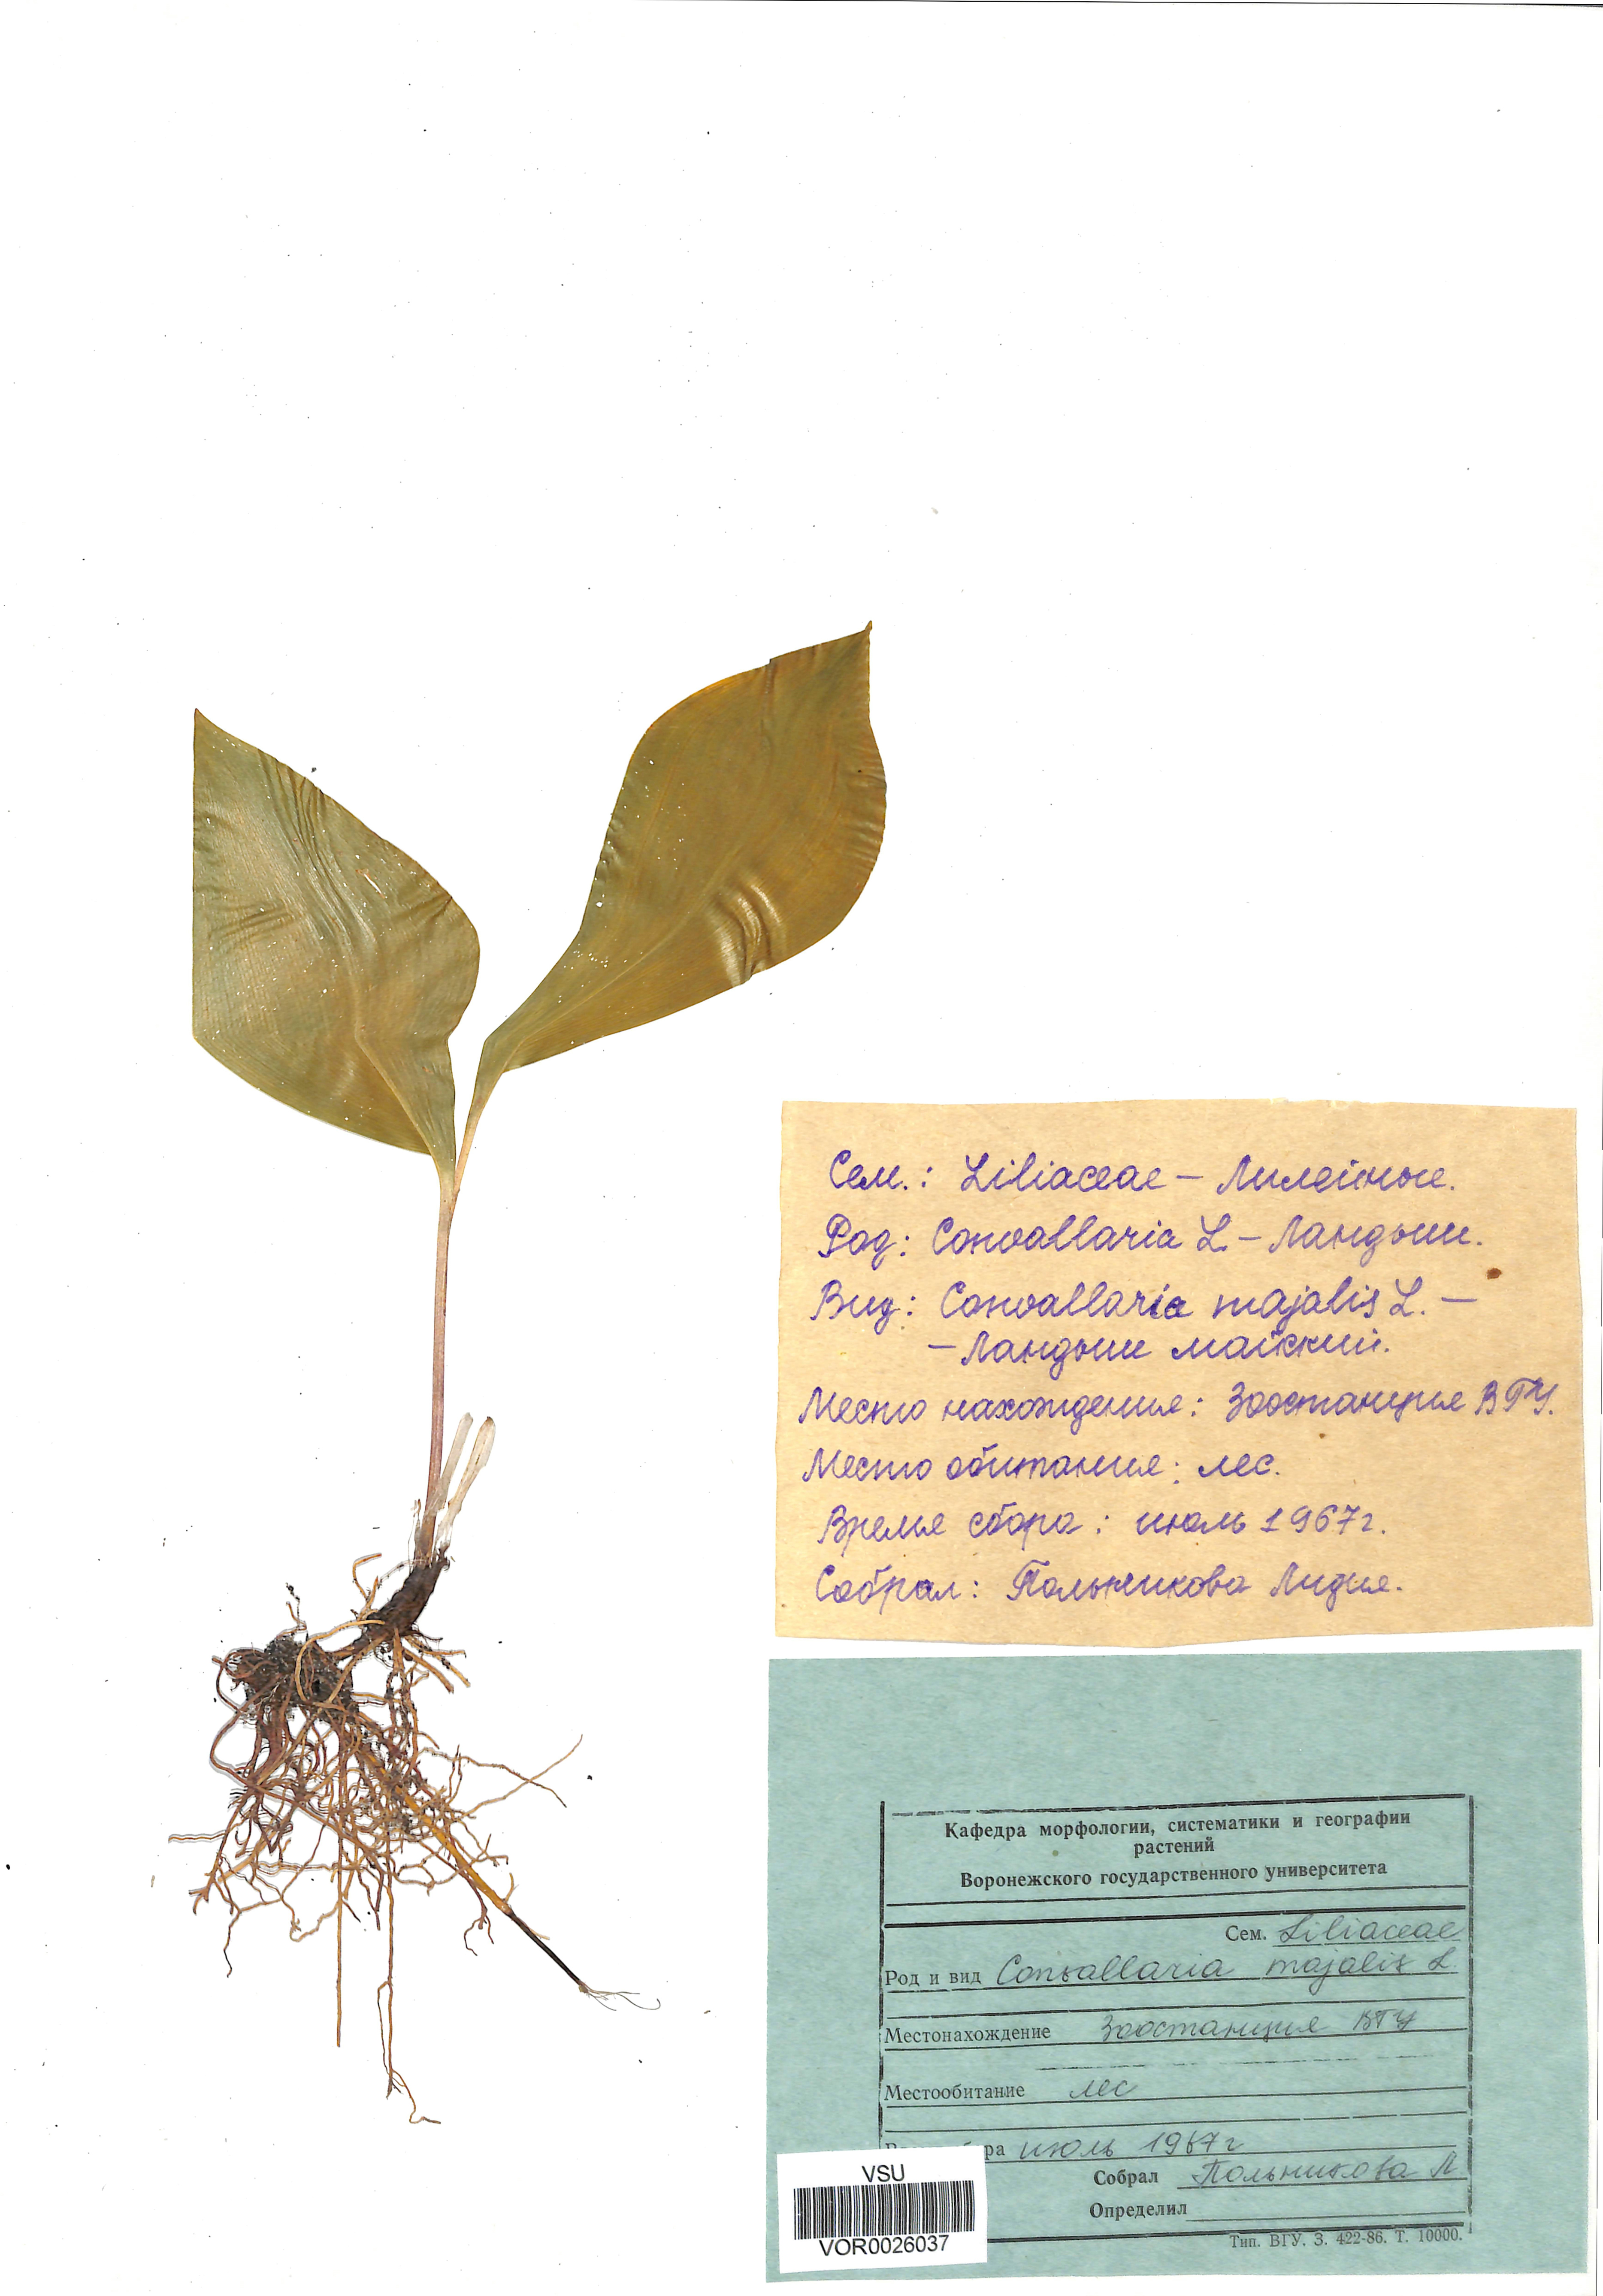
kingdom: Plantae
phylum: Tracheophyta
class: Liliopsida
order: Asparagales
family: Asparagaceae
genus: Convallaria
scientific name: Convallaria majalis
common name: Lily-of-the-valley
